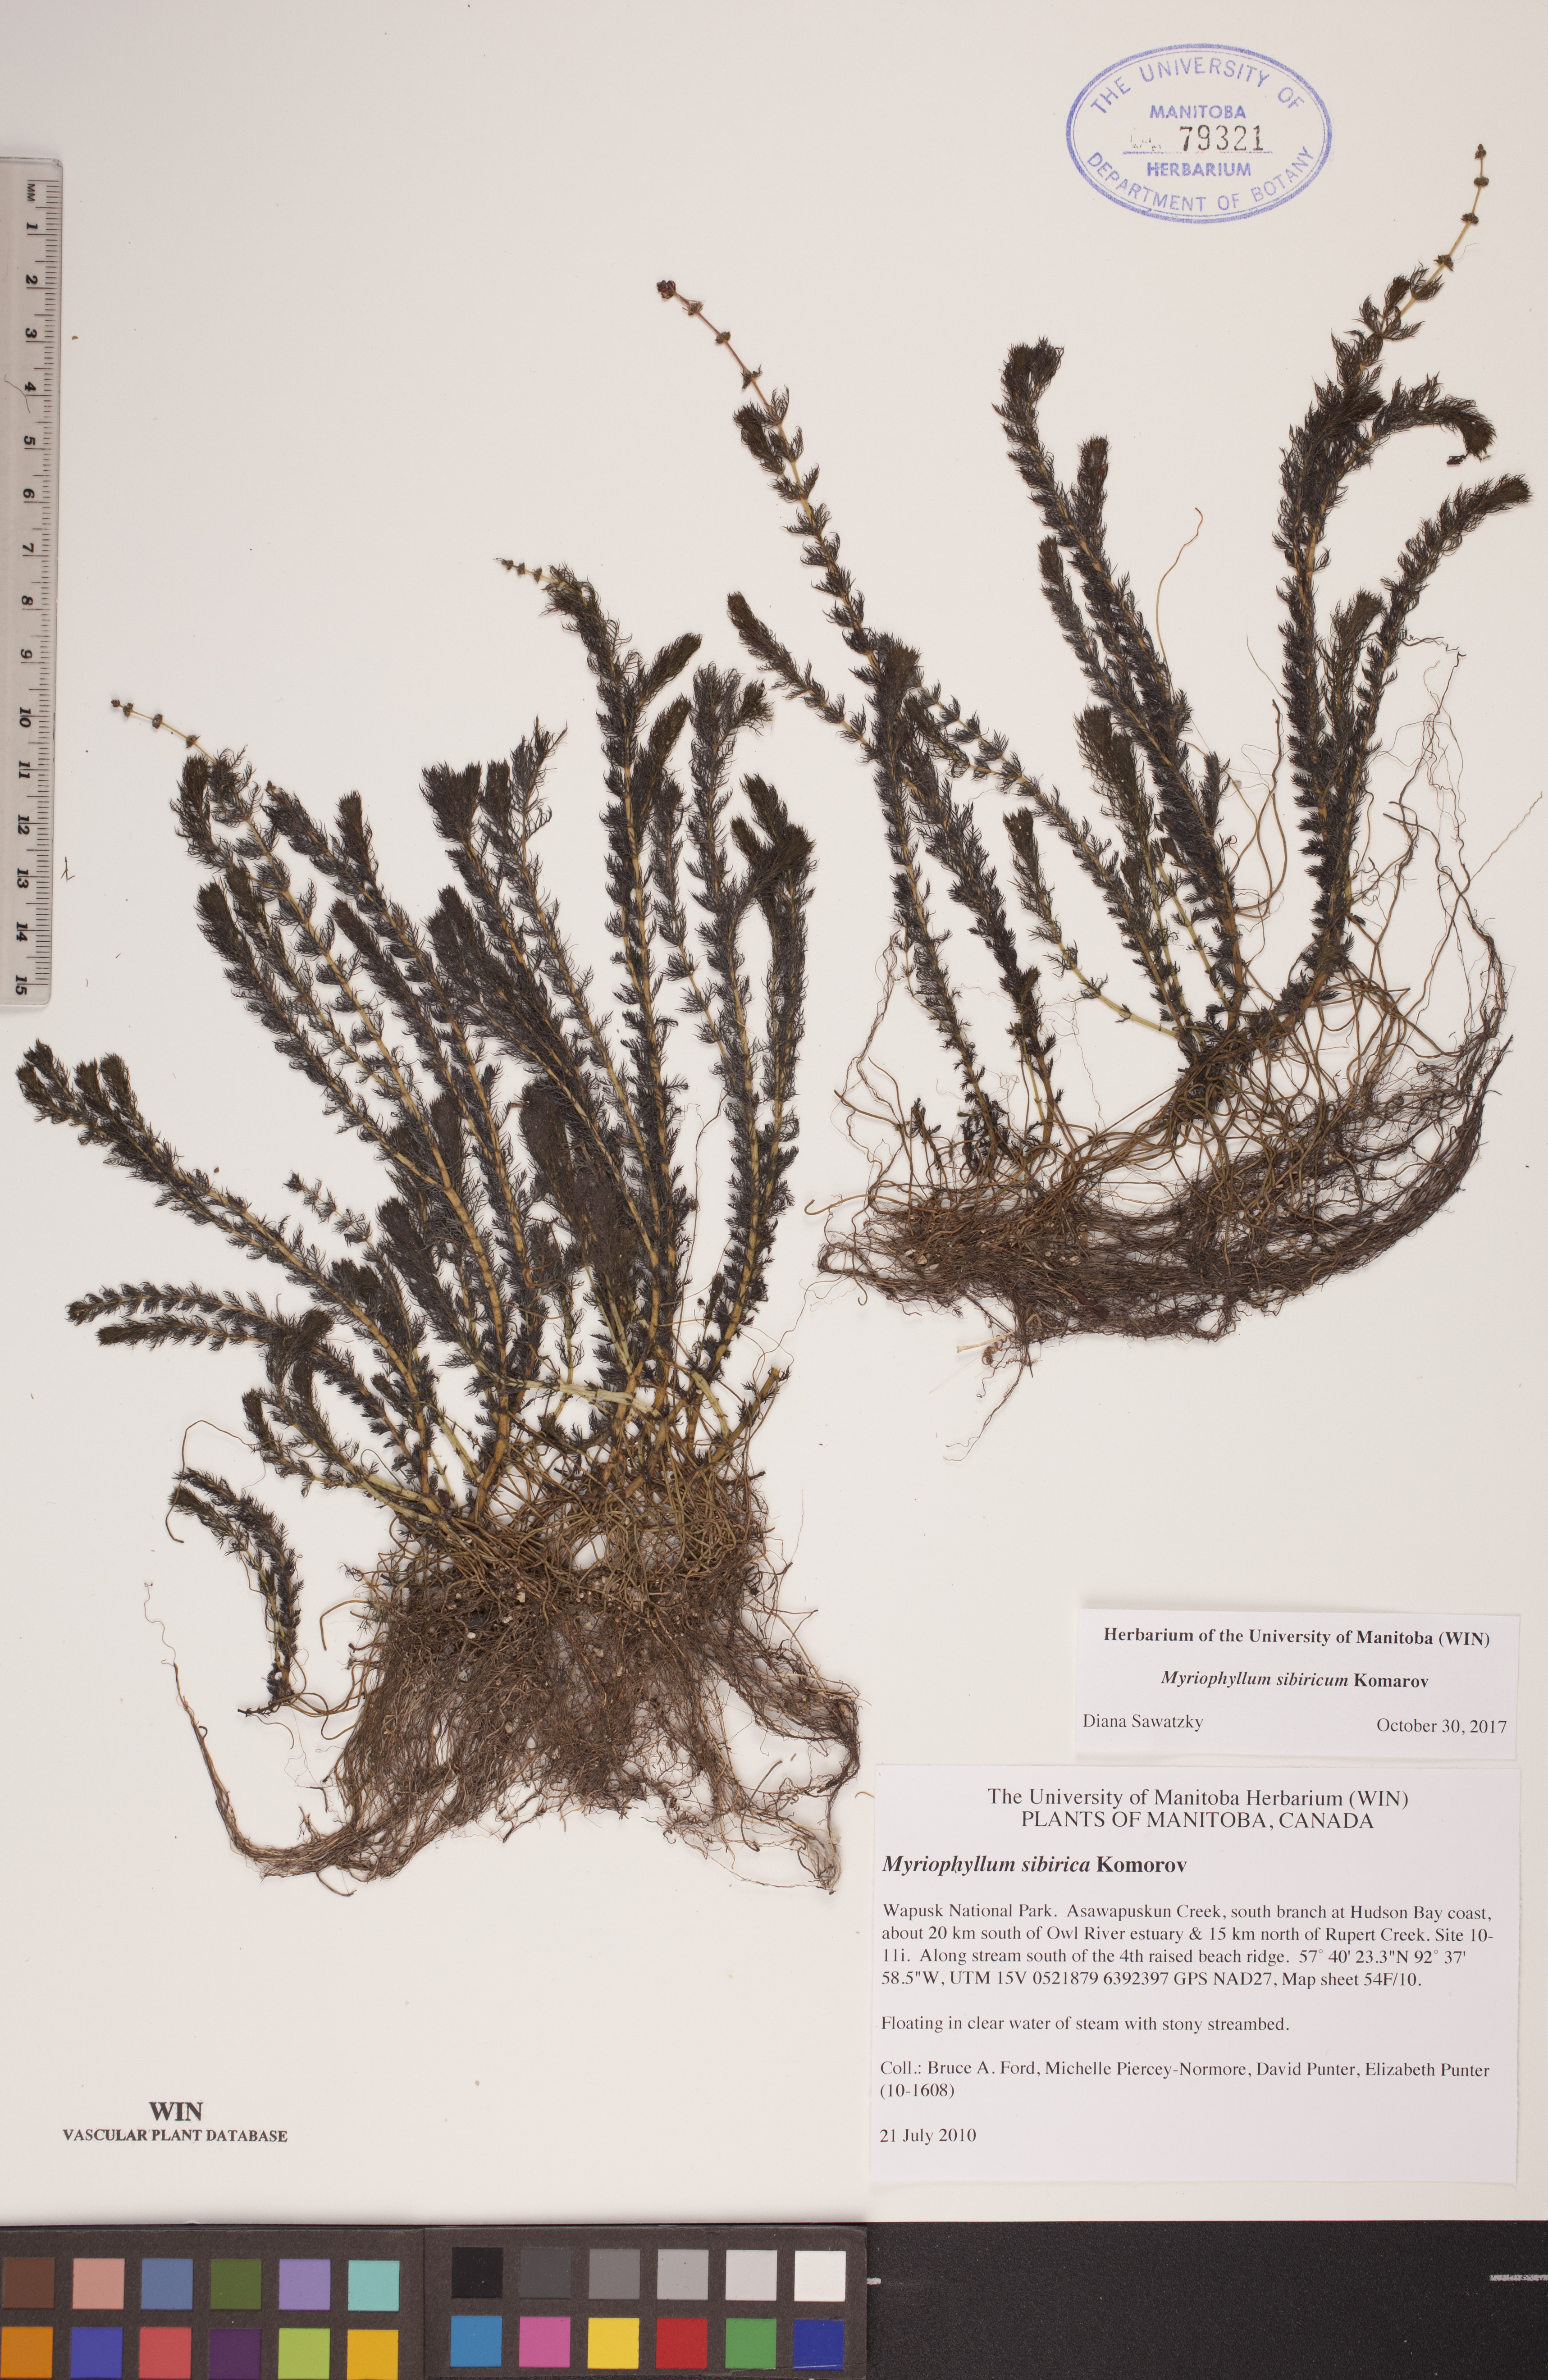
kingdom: Plantae
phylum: Tracheophyta
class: Magnoliopsida
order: Saxifragales
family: Haloragaceae
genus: Myriophyllum
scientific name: Myriophyllum sibiricum
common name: Siberian water-milfoil
